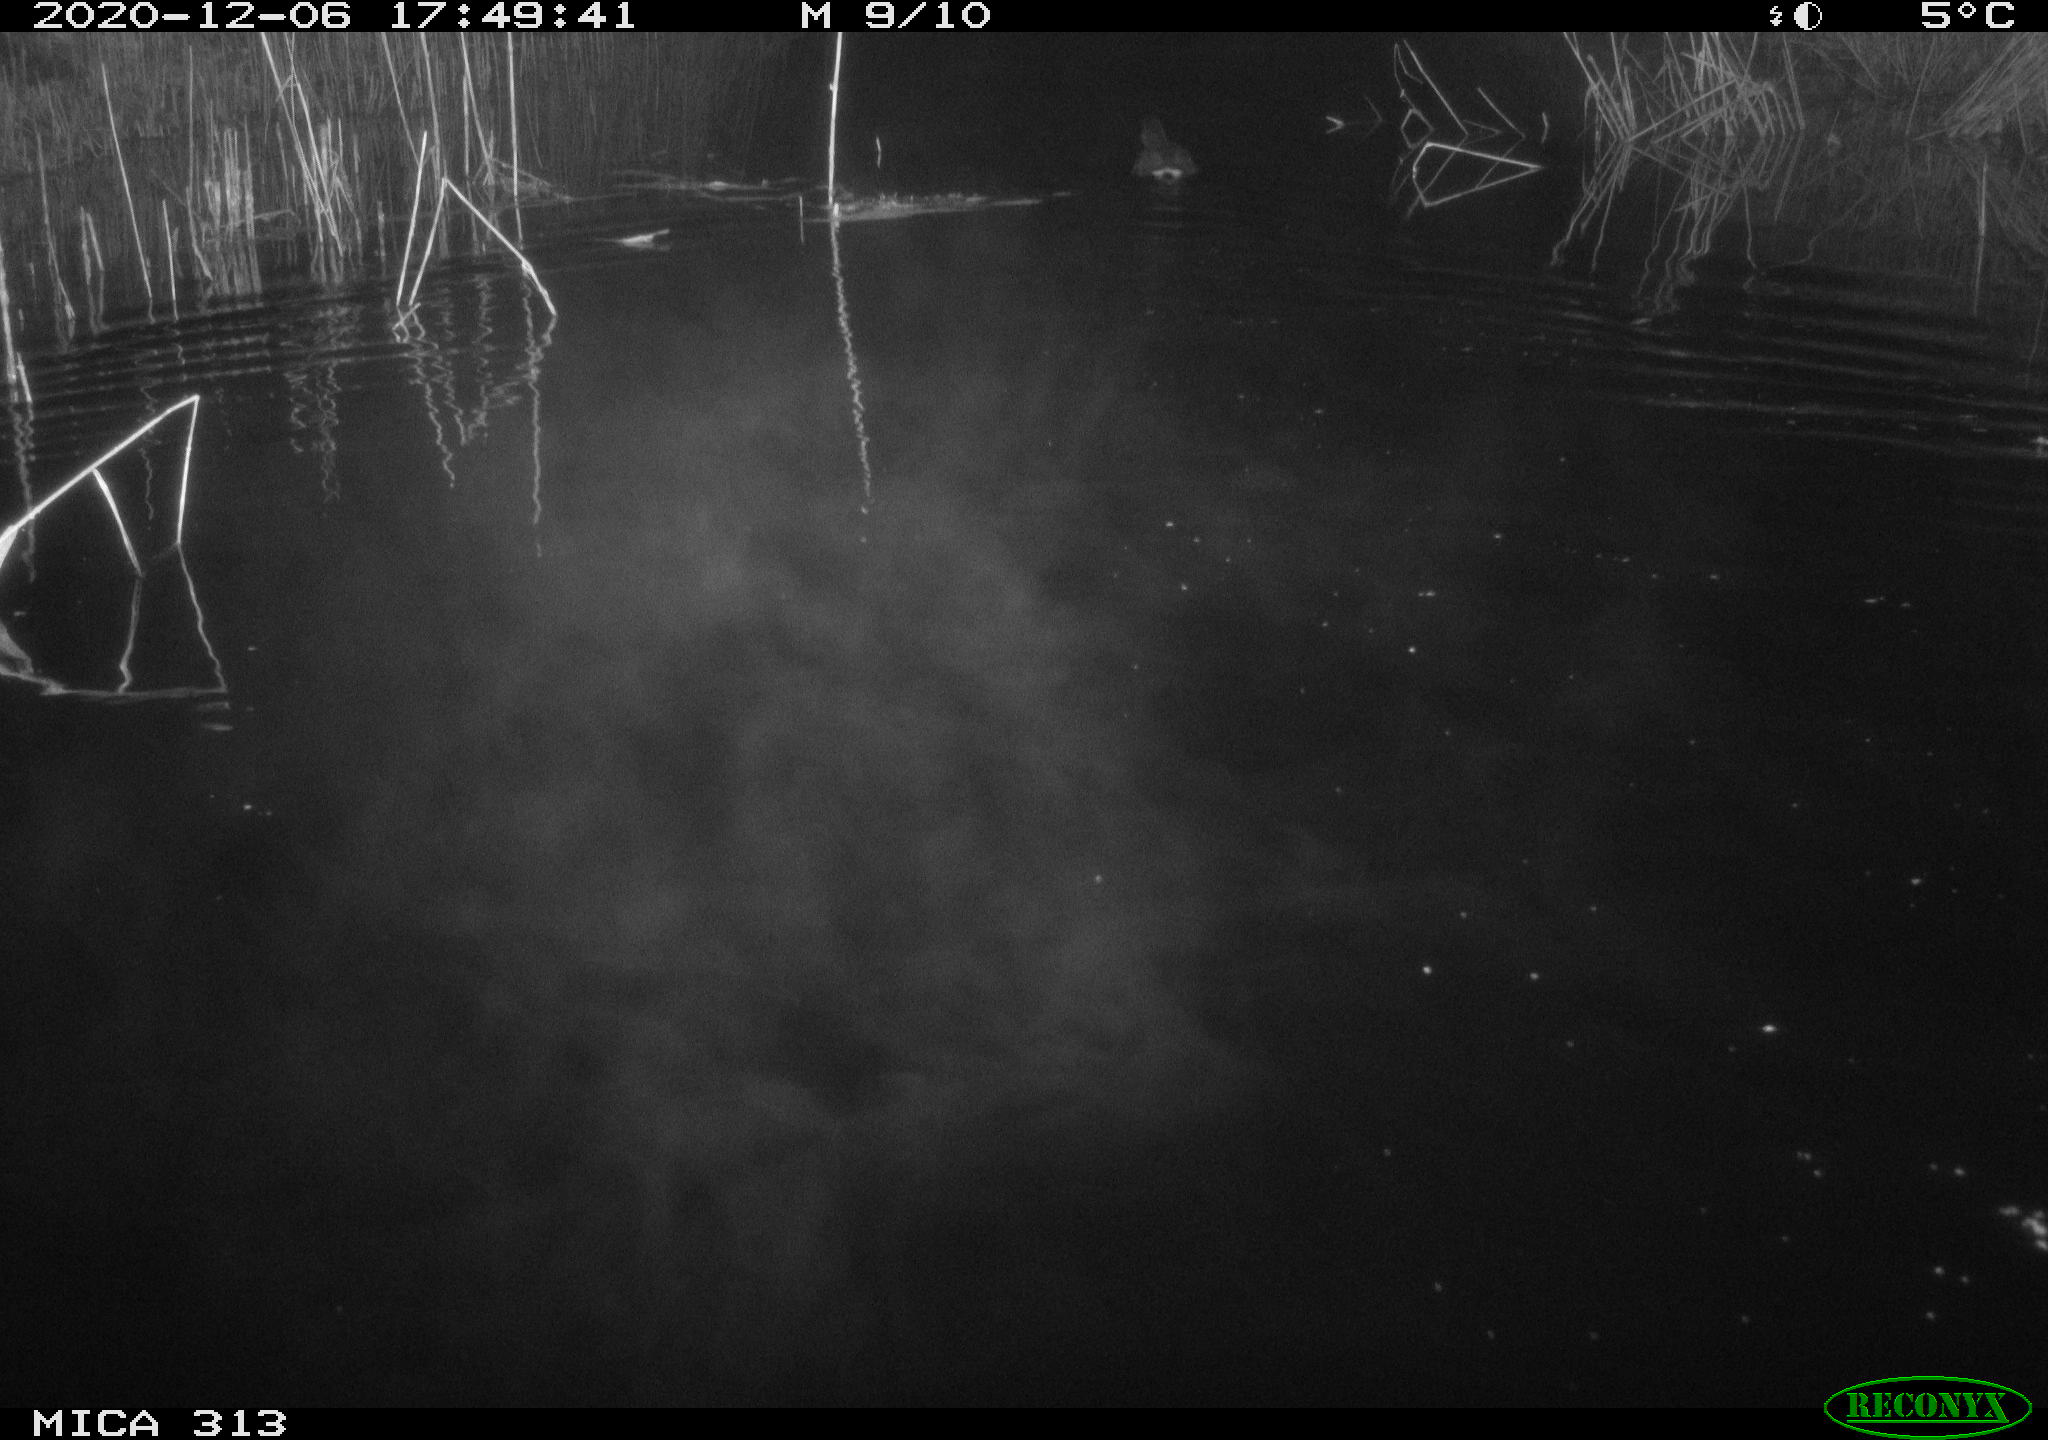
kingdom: Animalia
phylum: Chordata
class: Aves
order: Gruiformes
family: Rallidae
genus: Gallinula
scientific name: Gallinula chloropus
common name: Common moorhen
